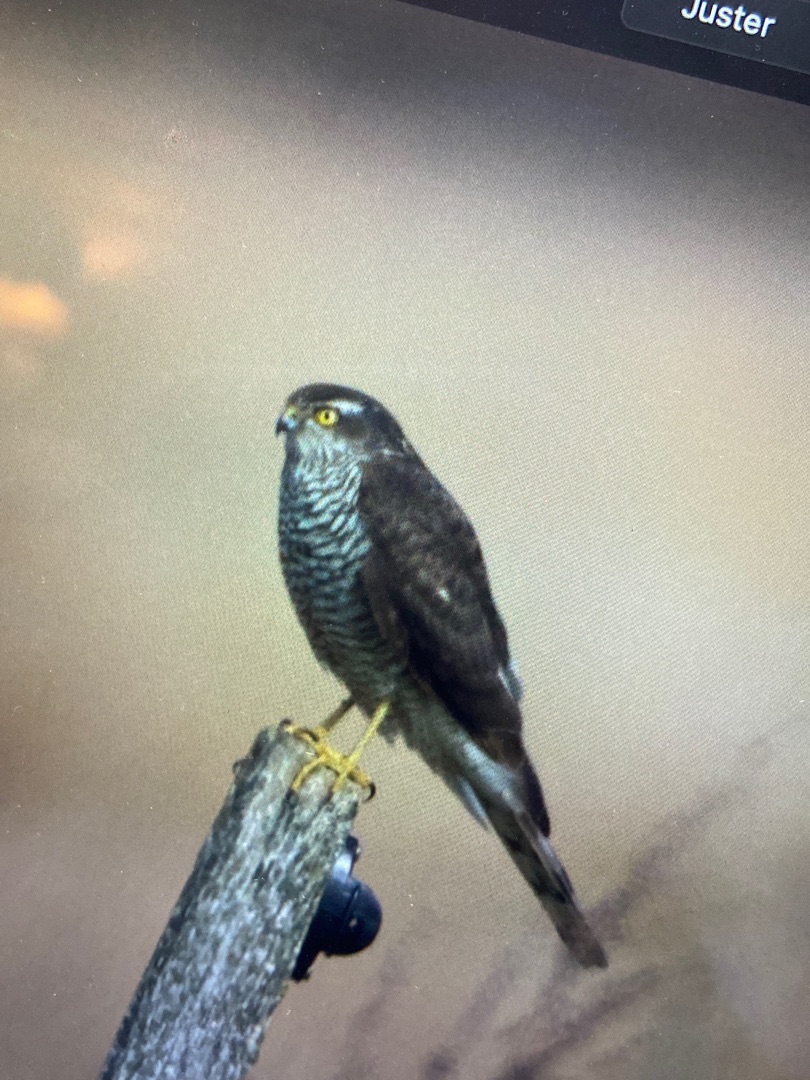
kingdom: Animalia
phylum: Chordata
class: Aves
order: Accipitriformes
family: Accipitridae
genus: Accipiter
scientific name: Accipiter nisus
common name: Spurvehøg
